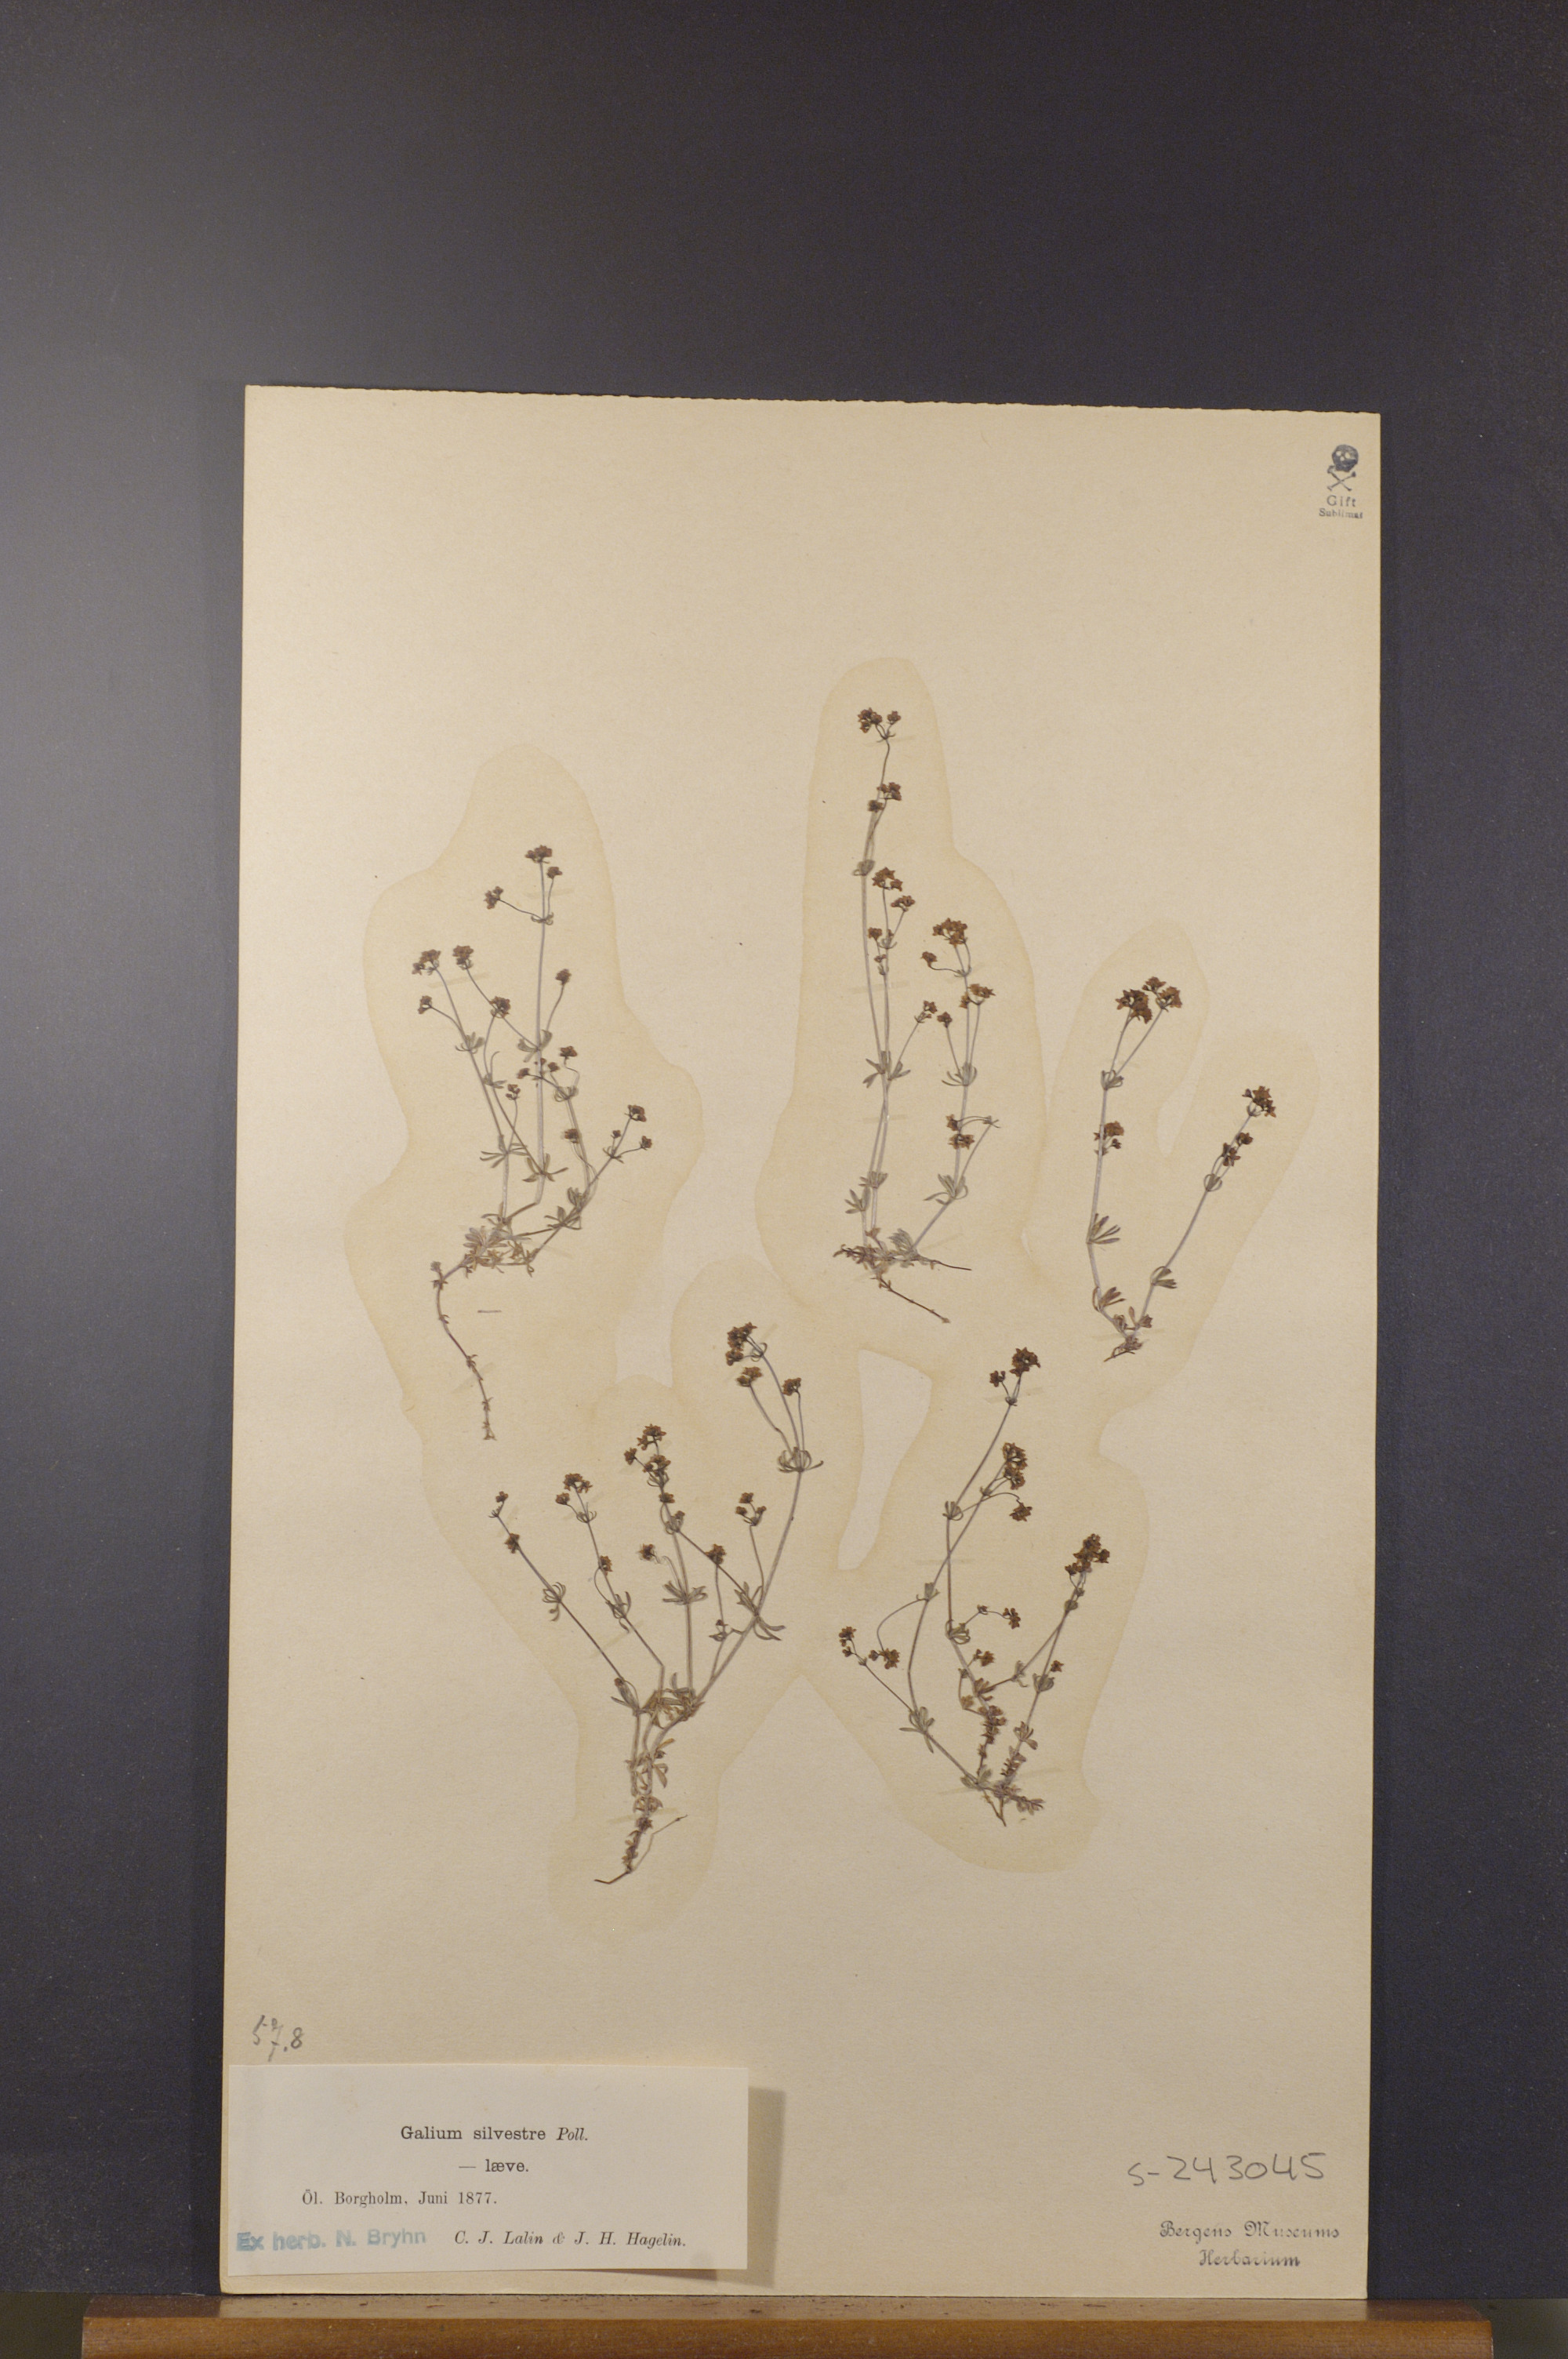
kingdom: Plantae
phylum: Tracheophyta
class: Magnoliopsida
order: Gentianales
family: Rubiaceae
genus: Galium
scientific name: Galium pumilum
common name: Slender bedstraw
